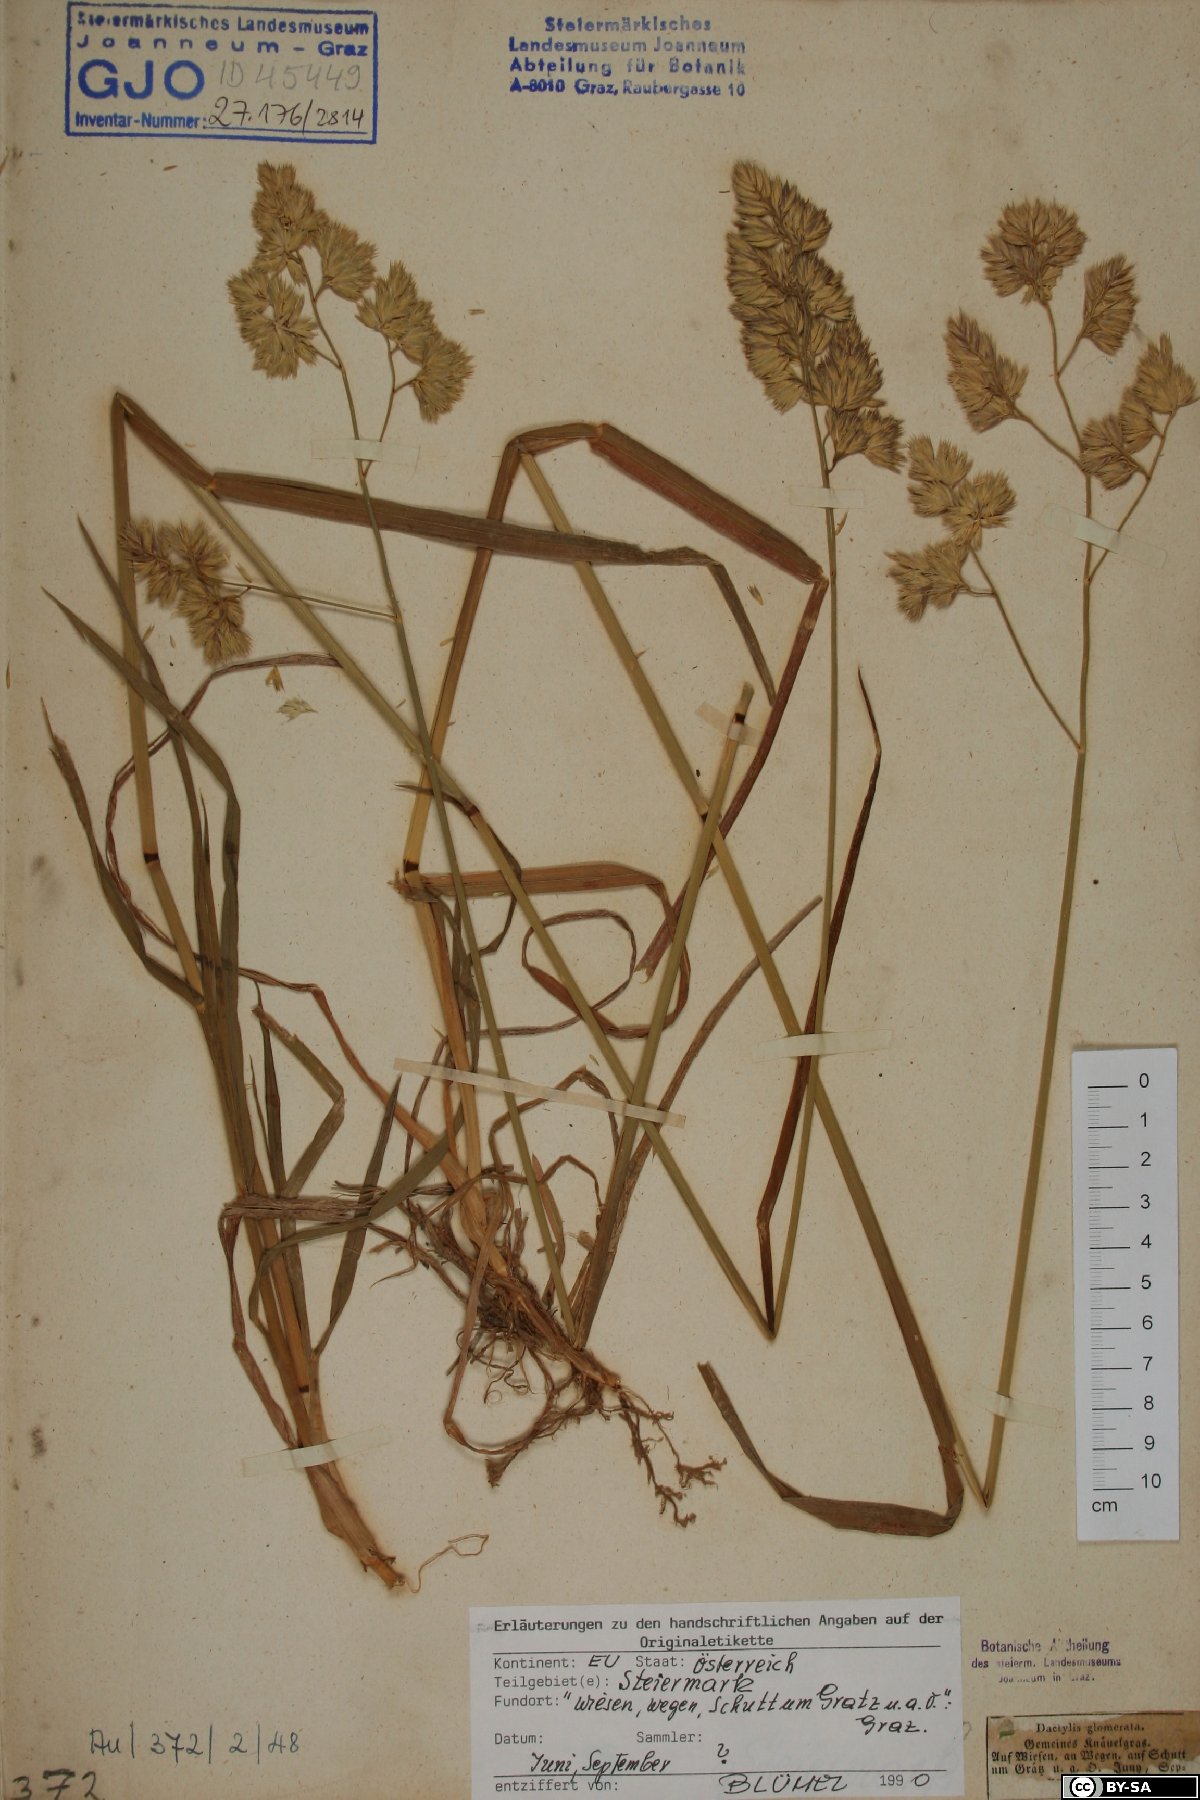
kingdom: Plantae
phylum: Tracheophyta
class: Liliopsida
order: Poales
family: Poaceae
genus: Dactylis
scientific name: Dactylis glomerata
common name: Orchardgrass
